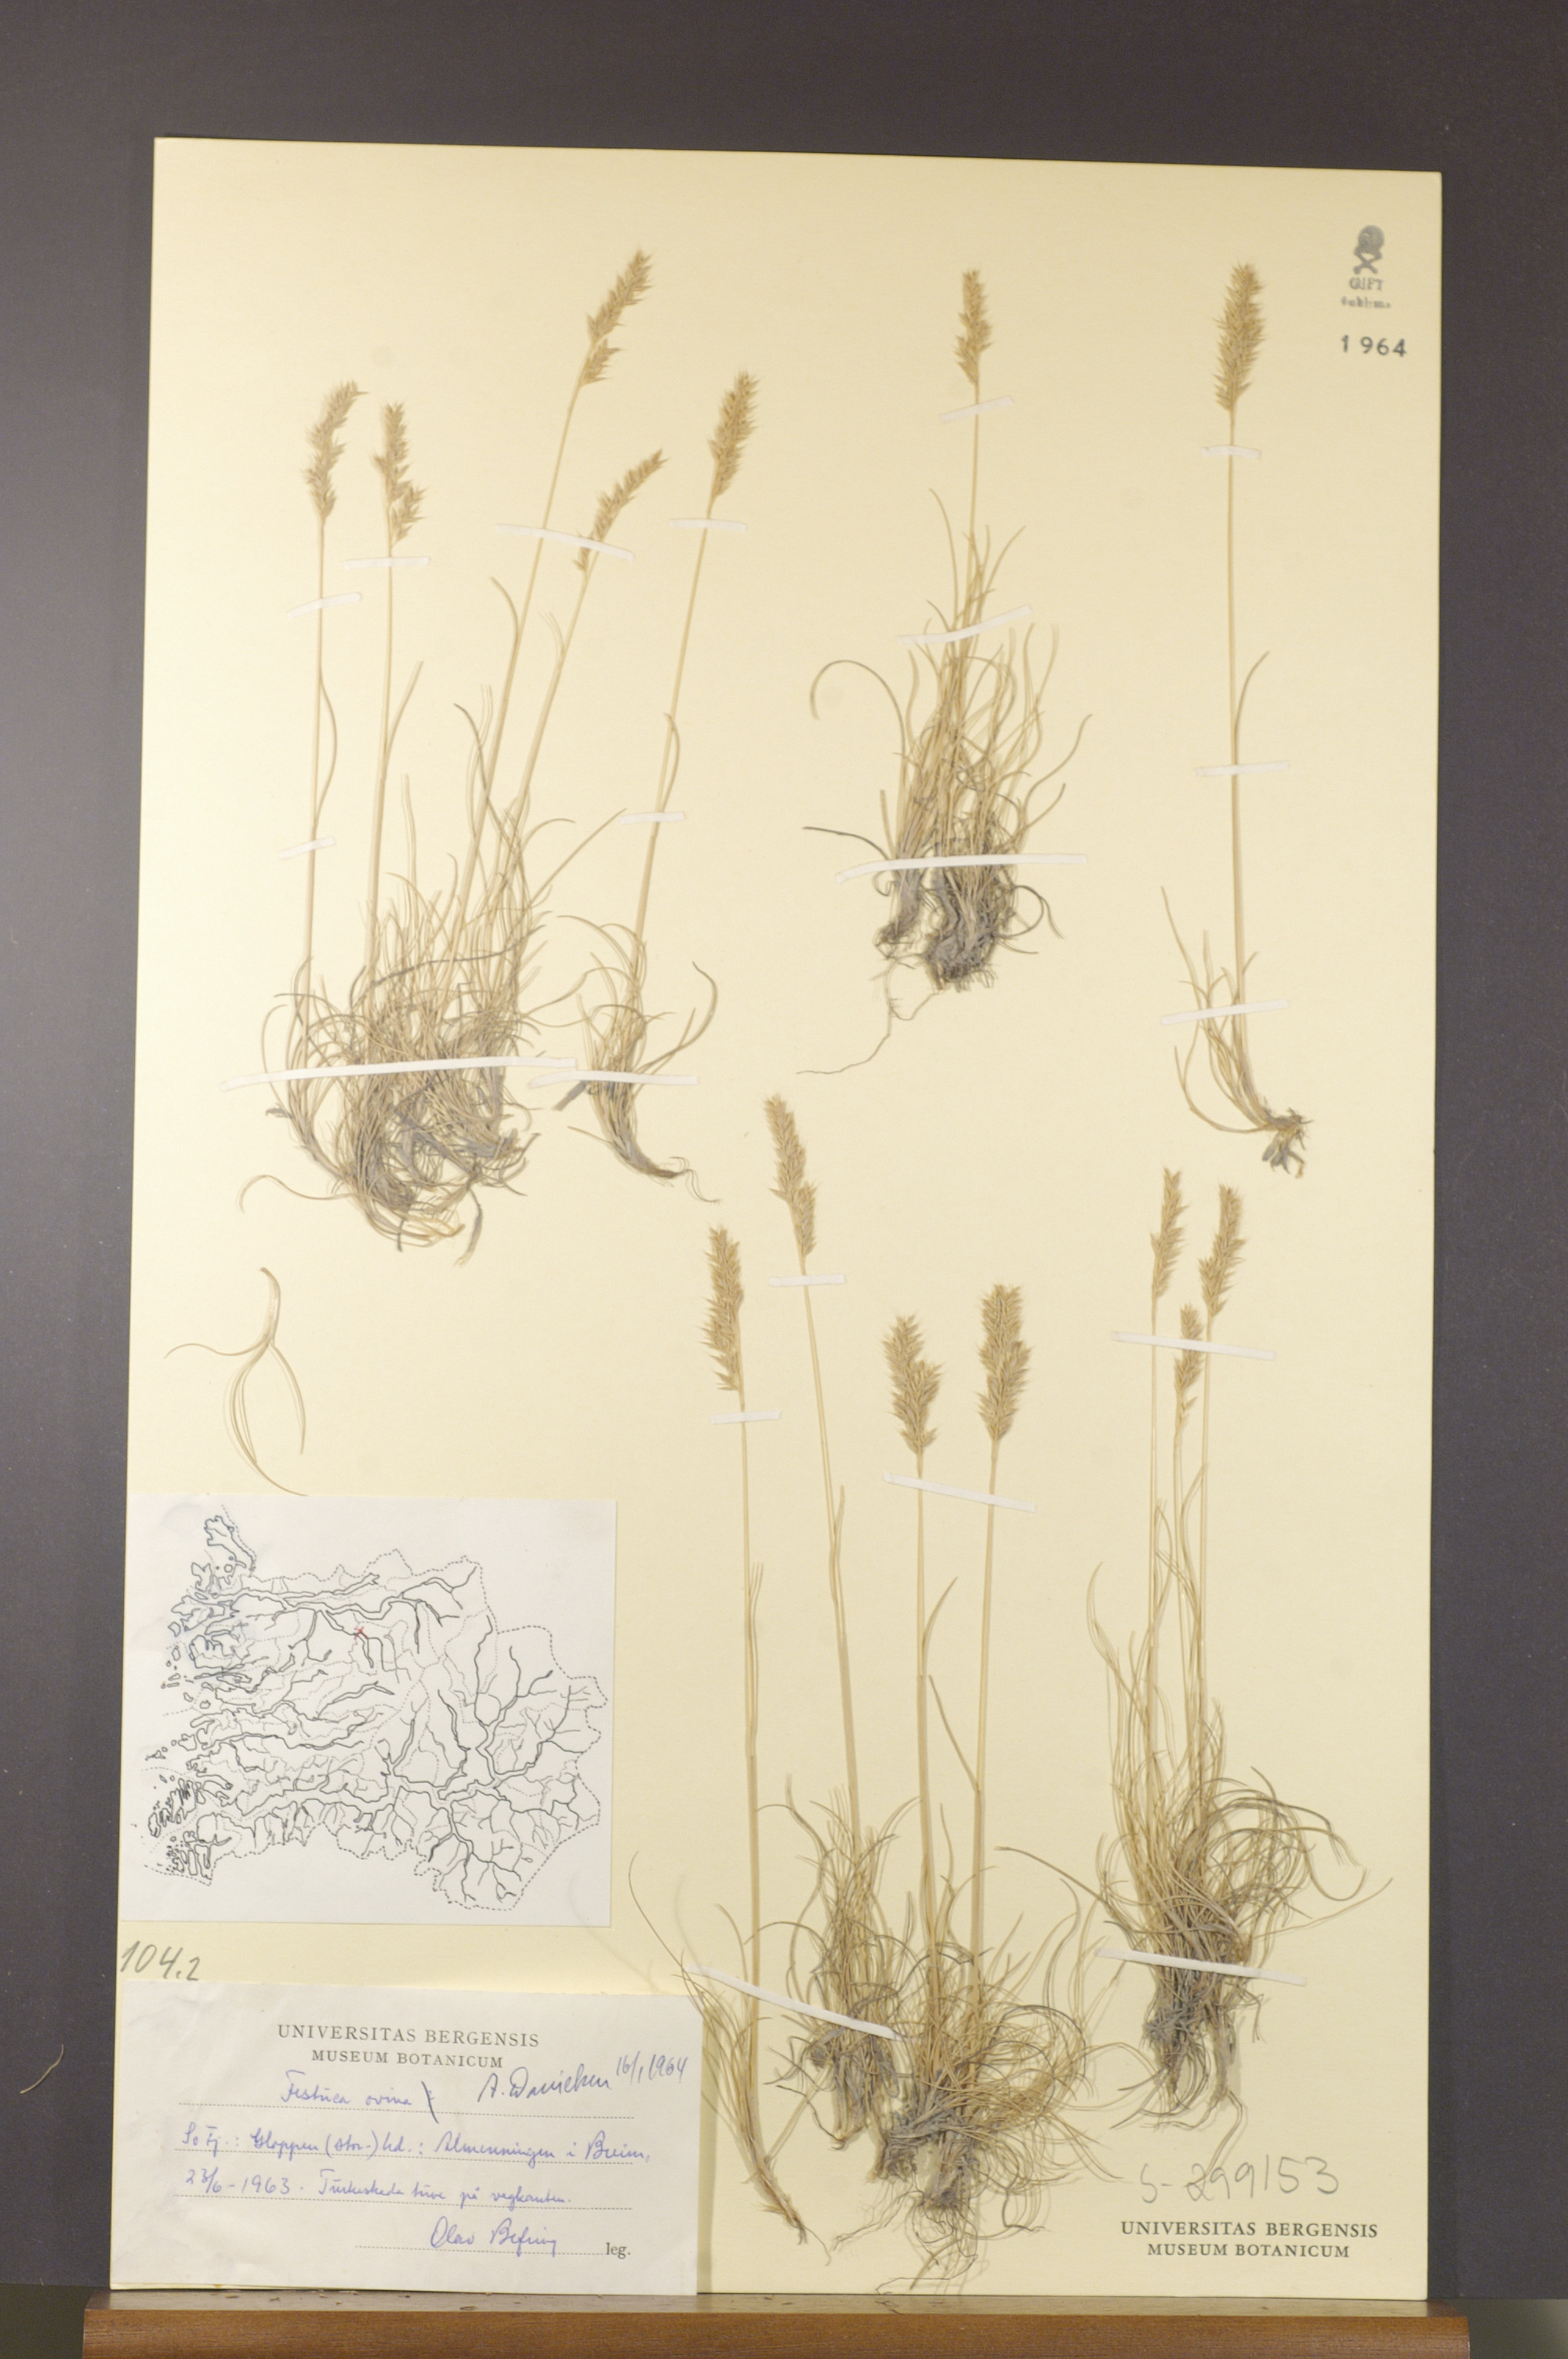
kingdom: Plantae
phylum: Tracheophyta
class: Liliopsida
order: Poales
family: Poaceae
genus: Festuca
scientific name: Festuca ovina
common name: Sheep fescue
